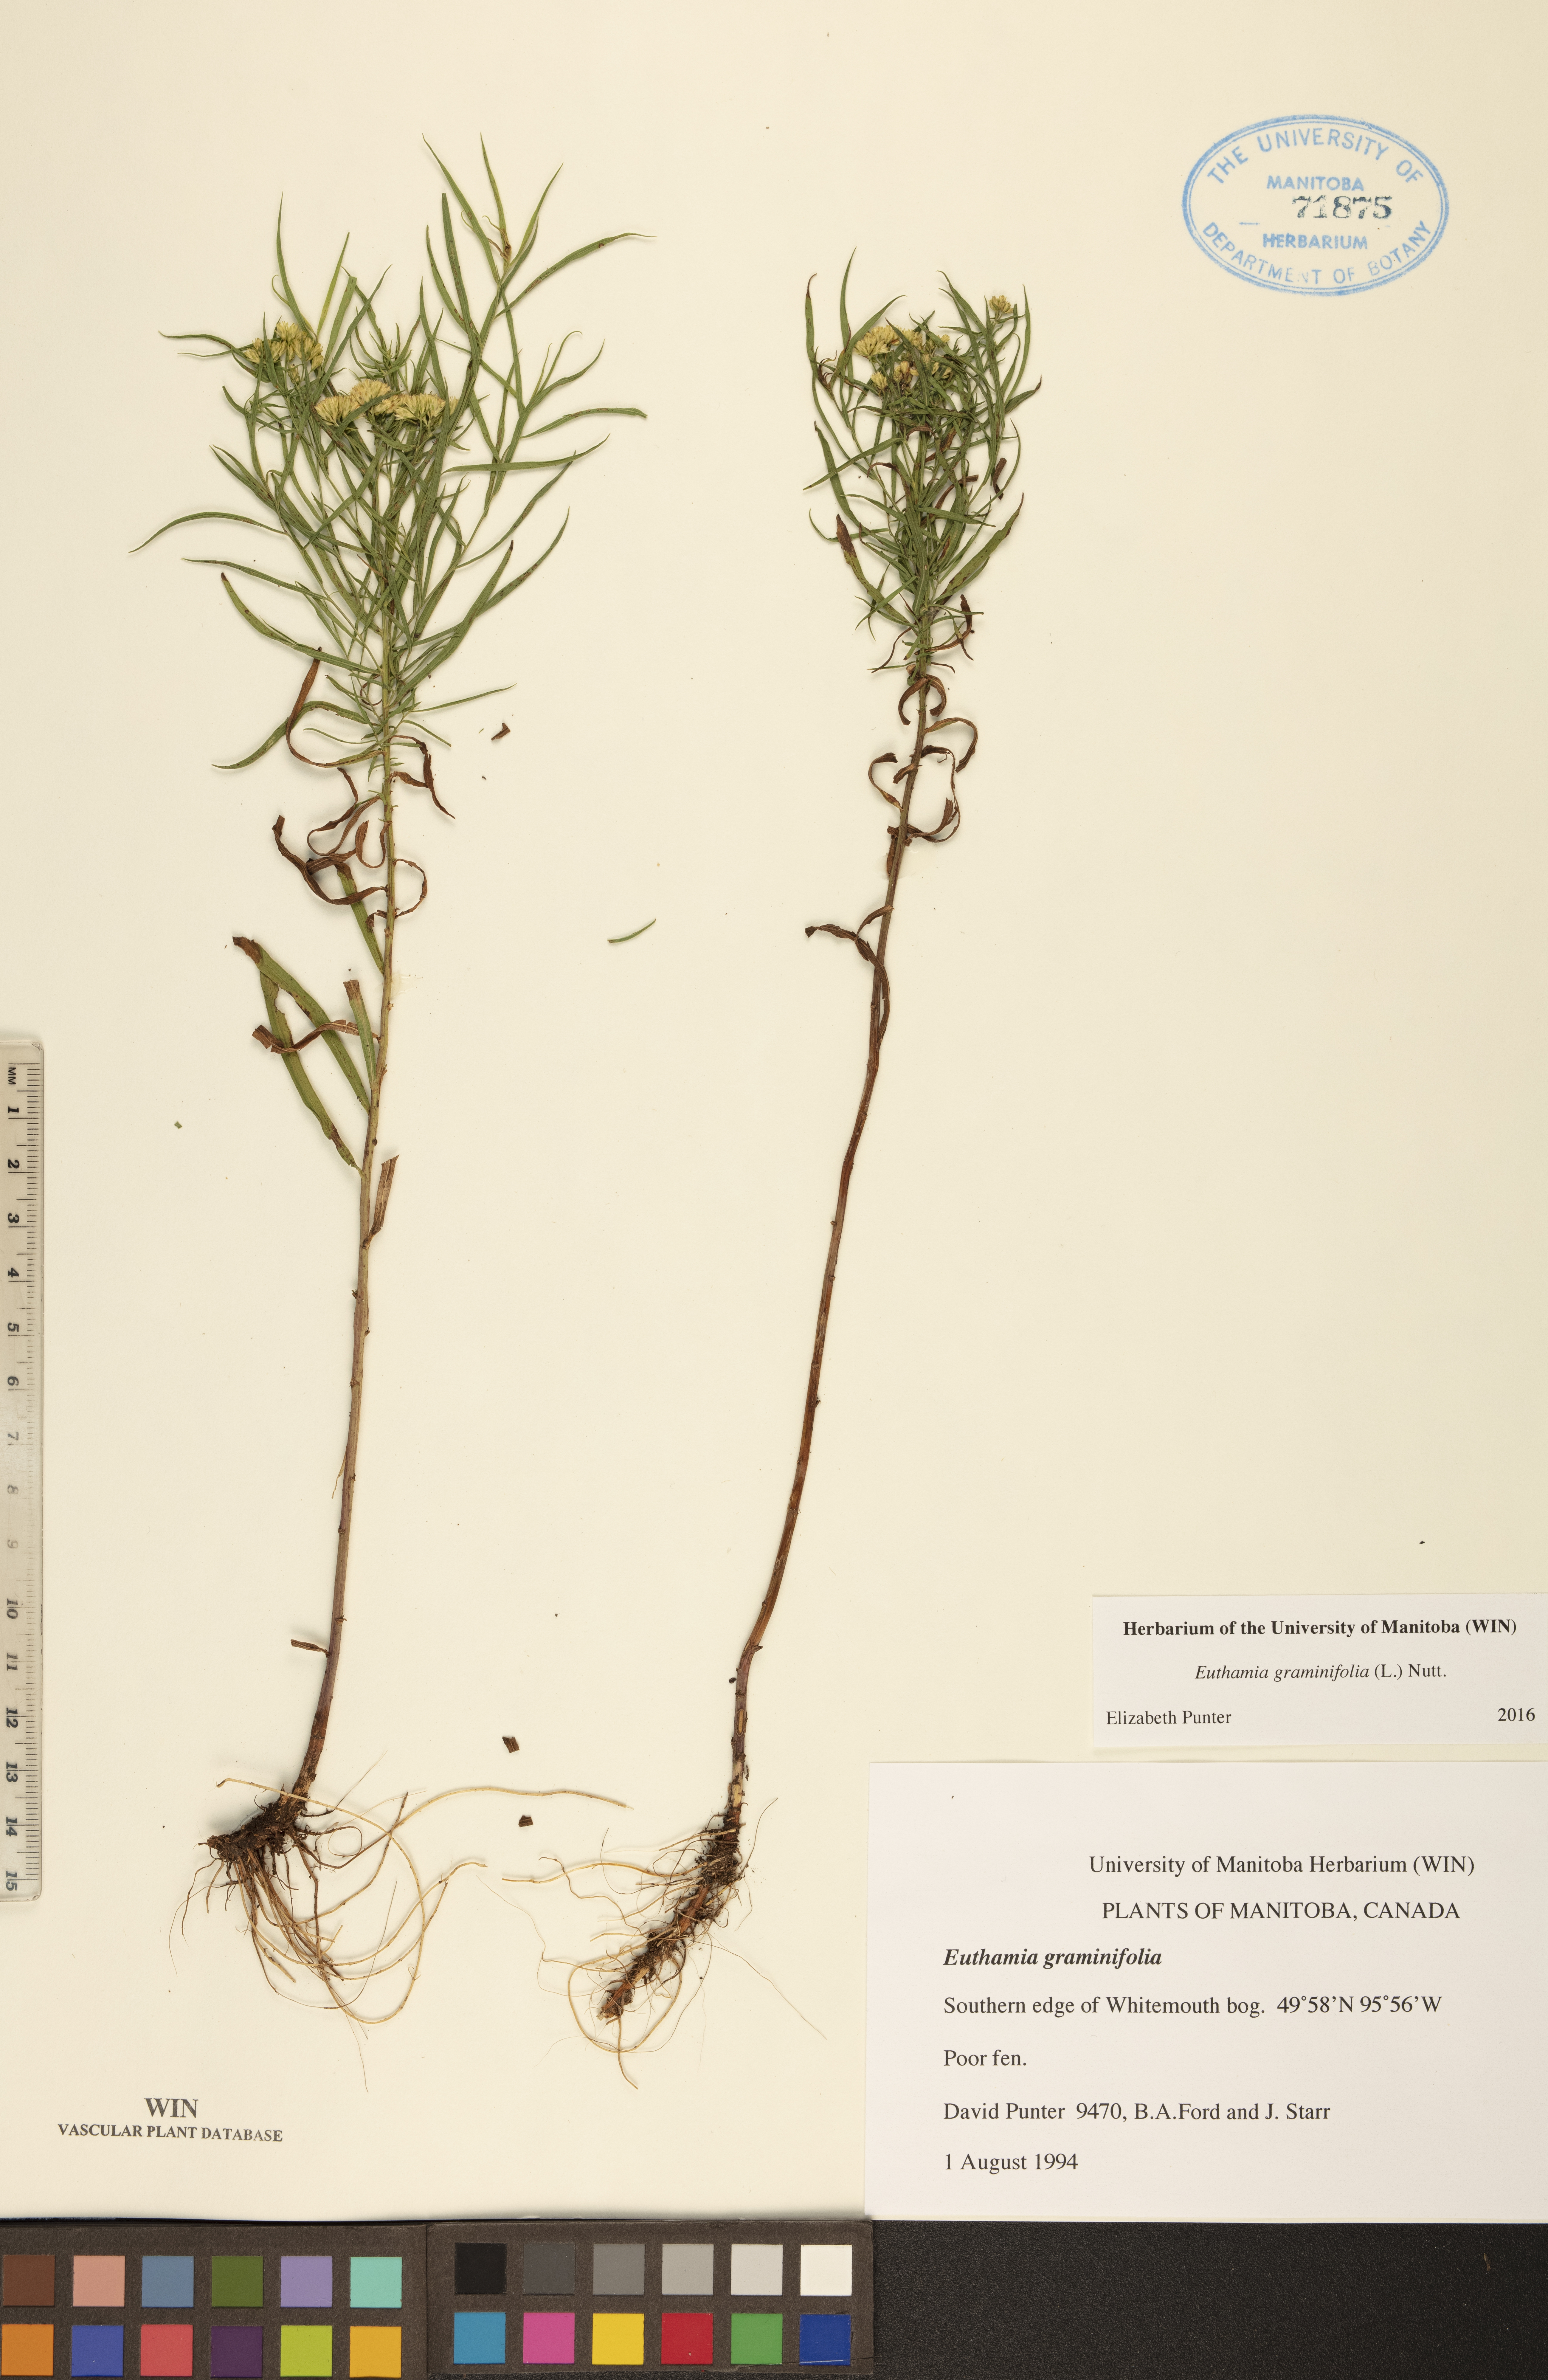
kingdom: Plantae
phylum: Tracheophyta
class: Magnoliopsida
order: Asterales
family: Asteraceae
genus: Euthamia
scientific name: Euthamia graminifolia
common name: Common goldentop
